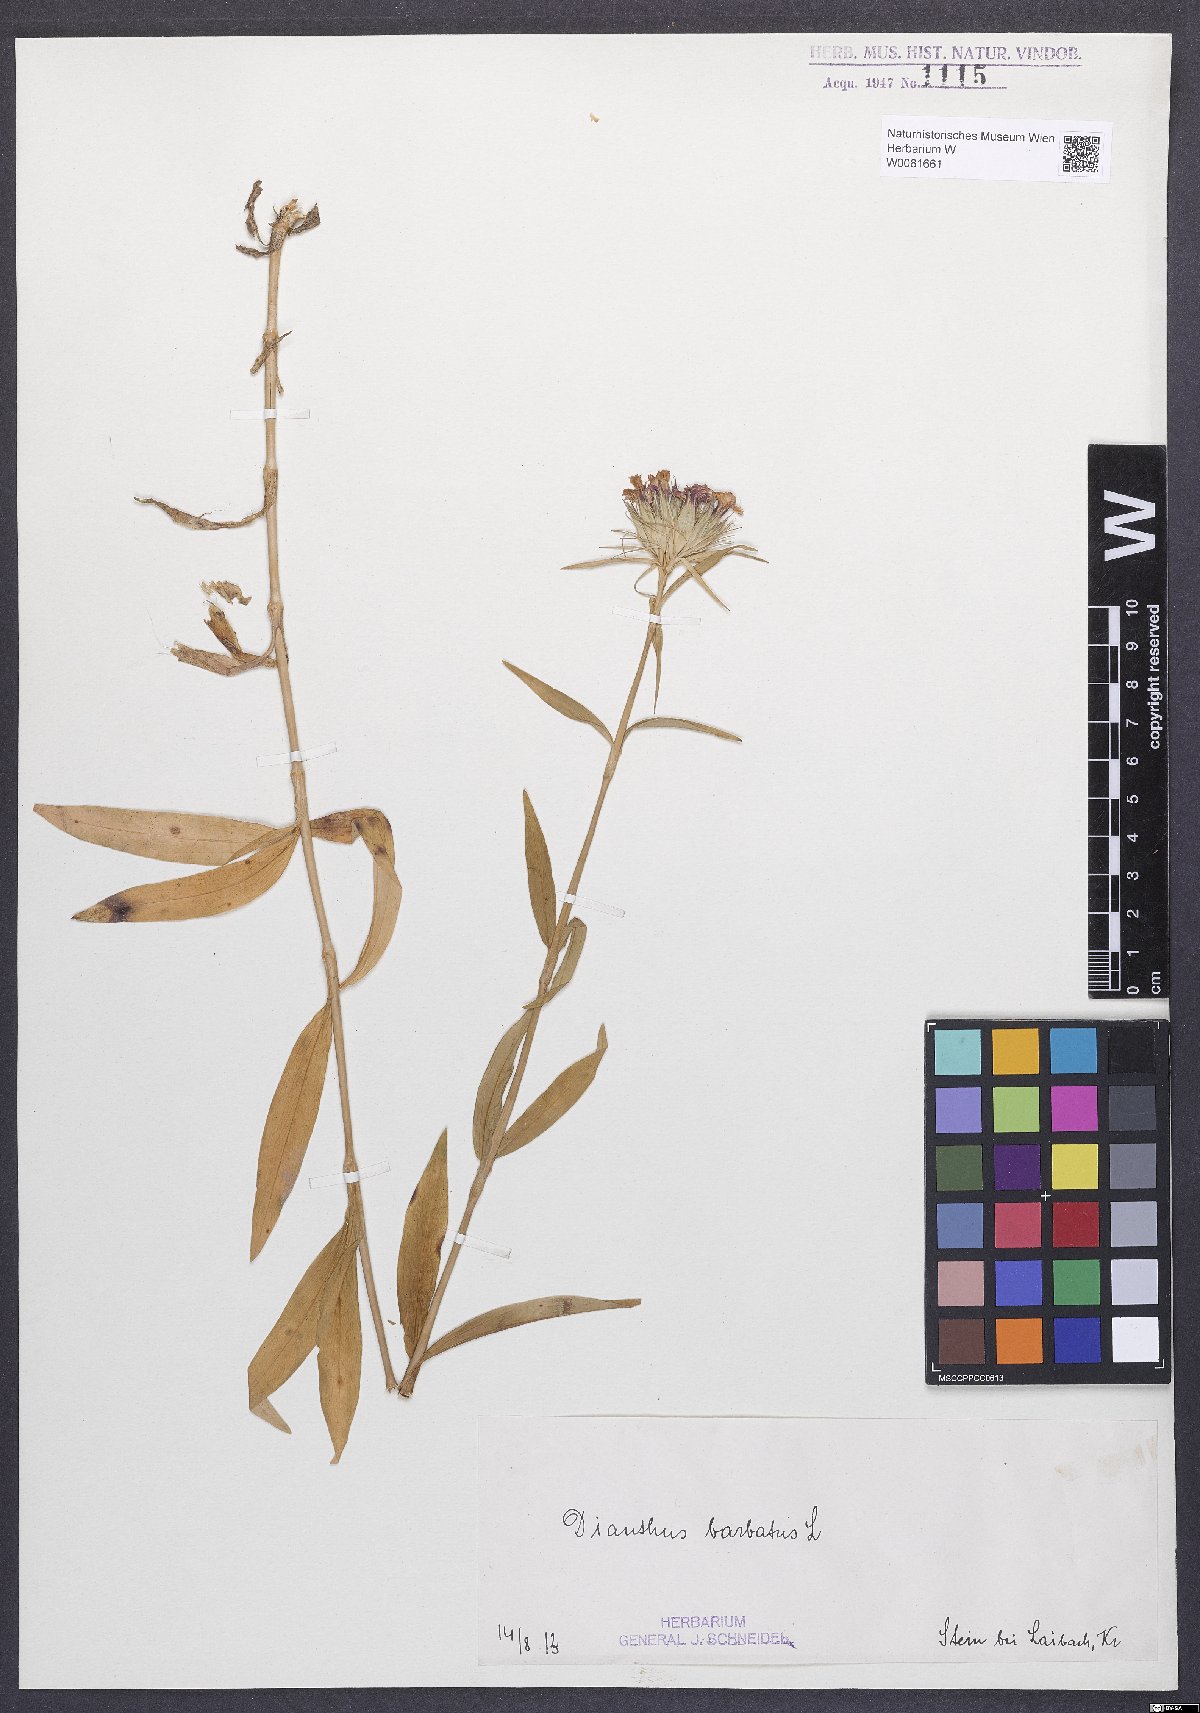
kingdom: Plantae
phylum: Tracheophyta
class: Magnoliopsida
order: Caryophyllales
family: Caryophyllaceae
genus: Dianthus
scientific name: Dianthus barbatus
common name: Sweet-william
